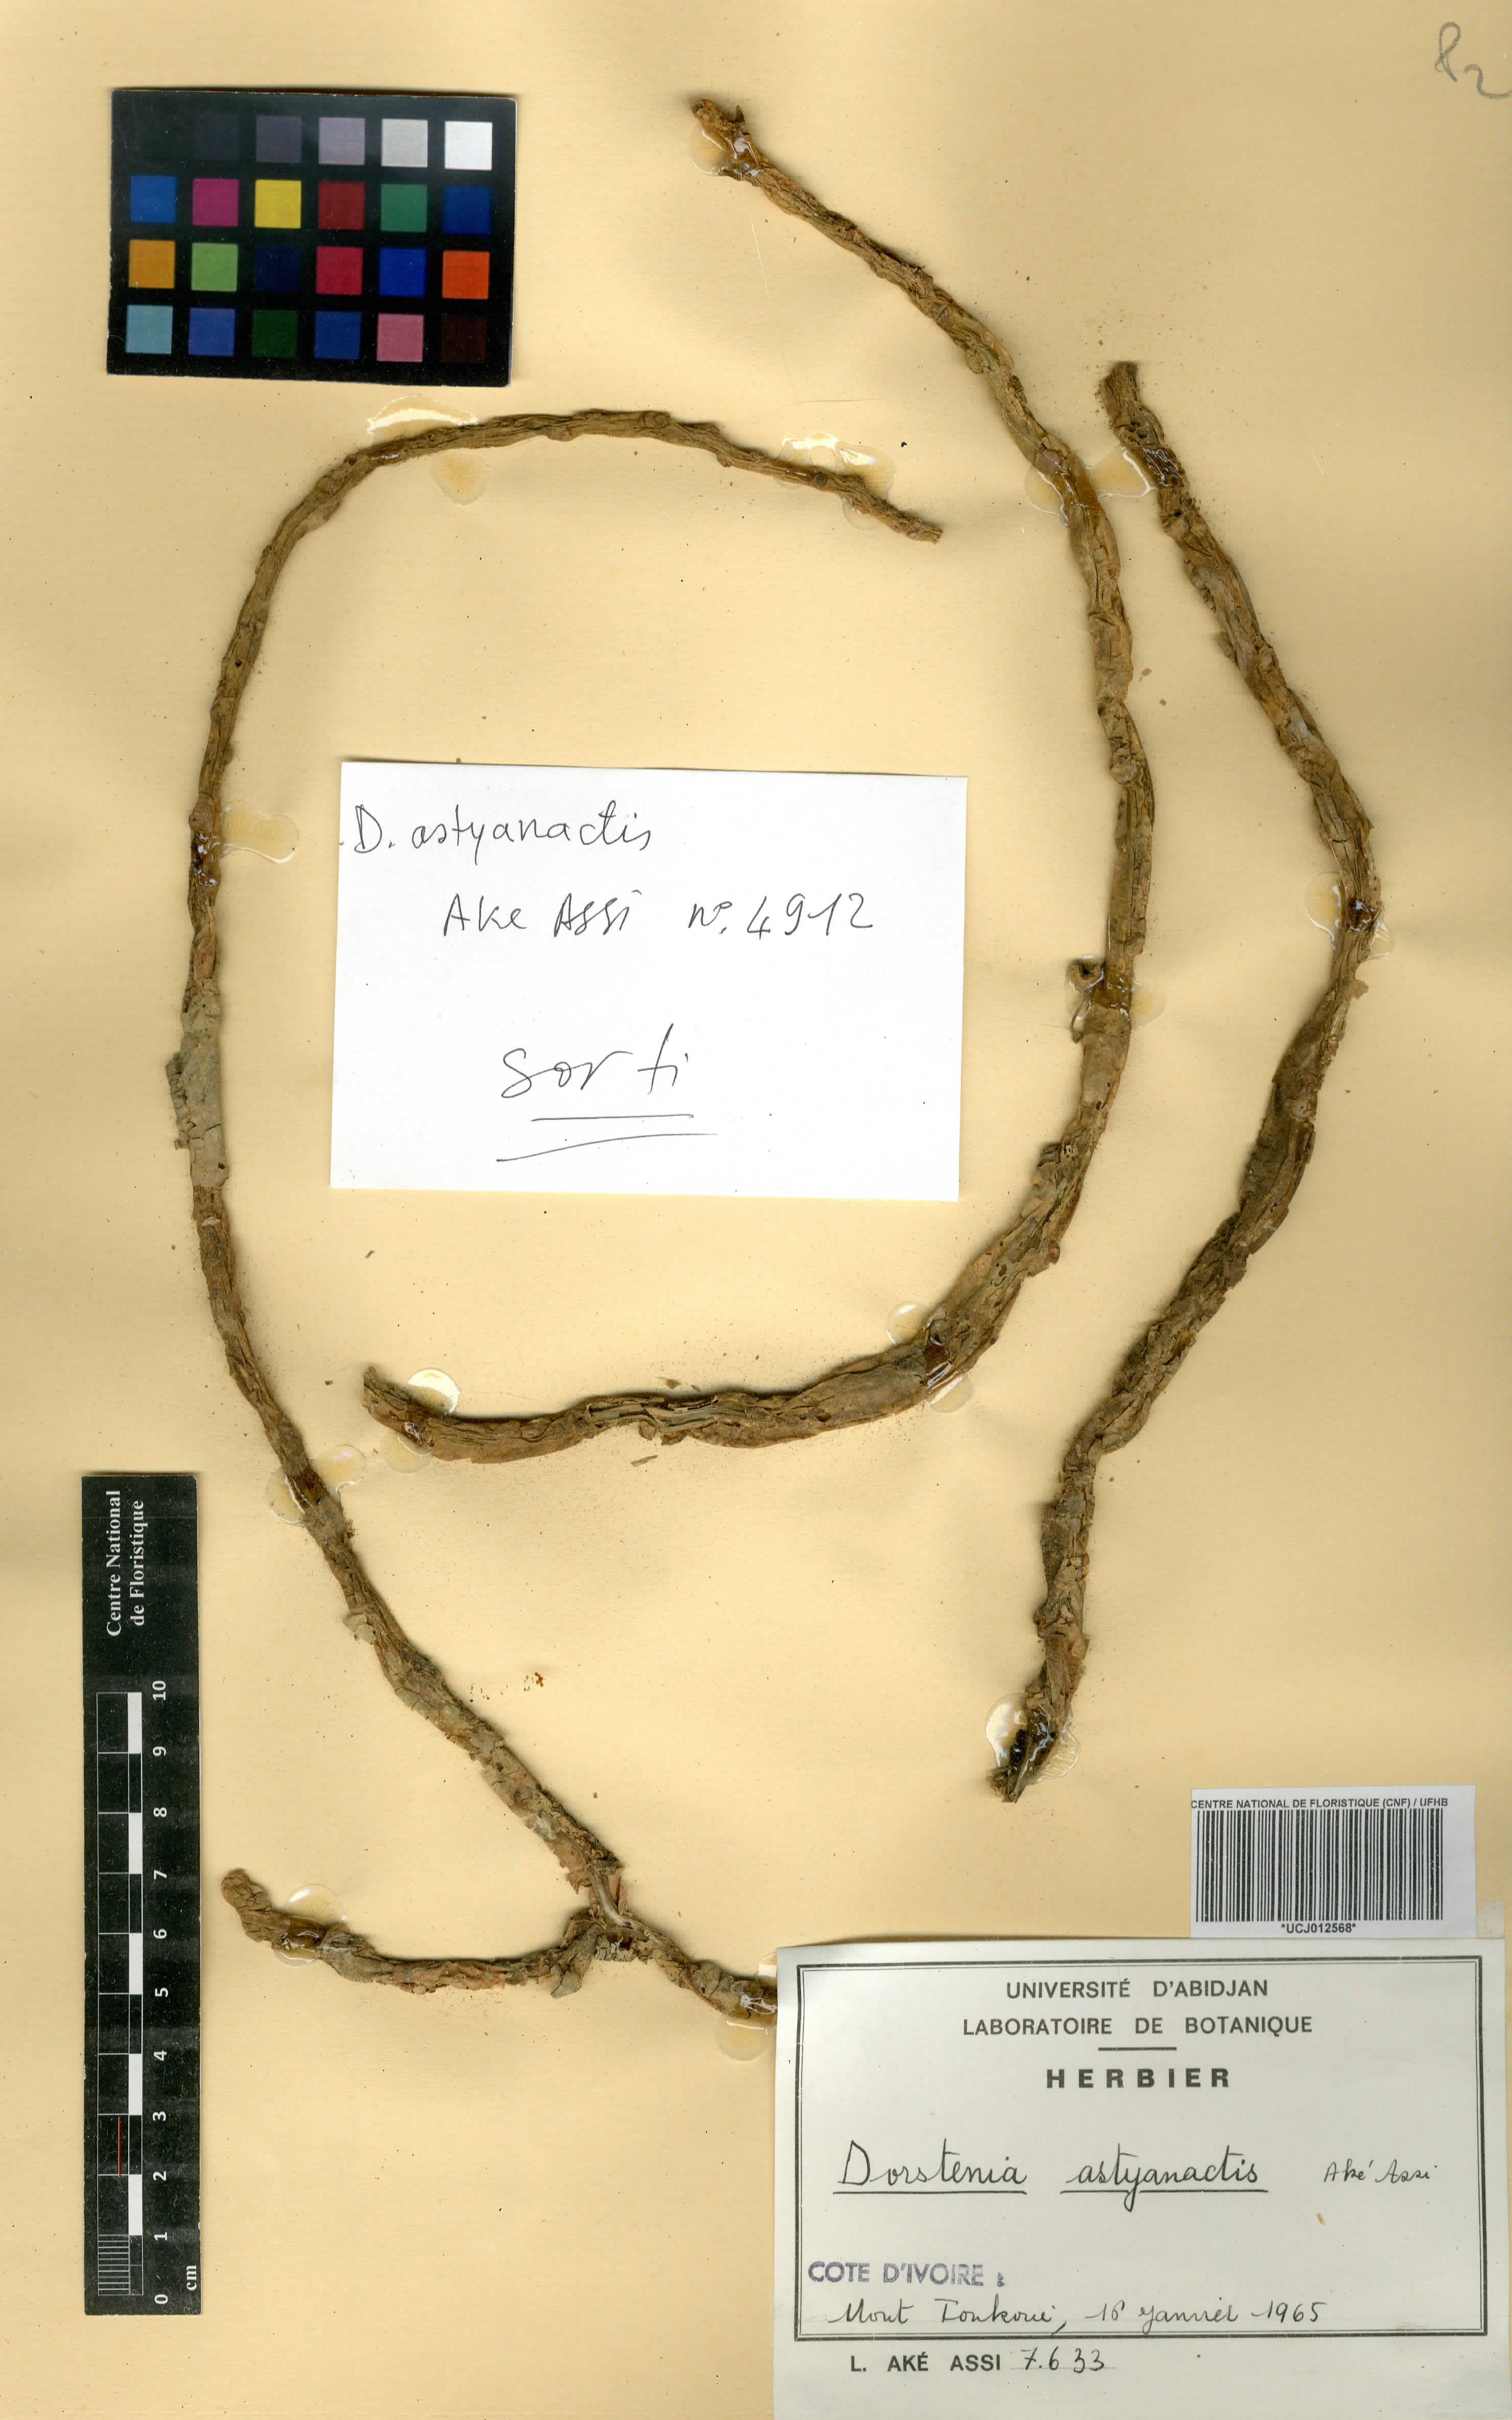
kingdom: Plantae
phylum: Tracheophyta
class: Magnoliopsida
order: Rosales
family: Moraceae
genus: Dorstenia
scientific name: Dorstenia astyanactis
